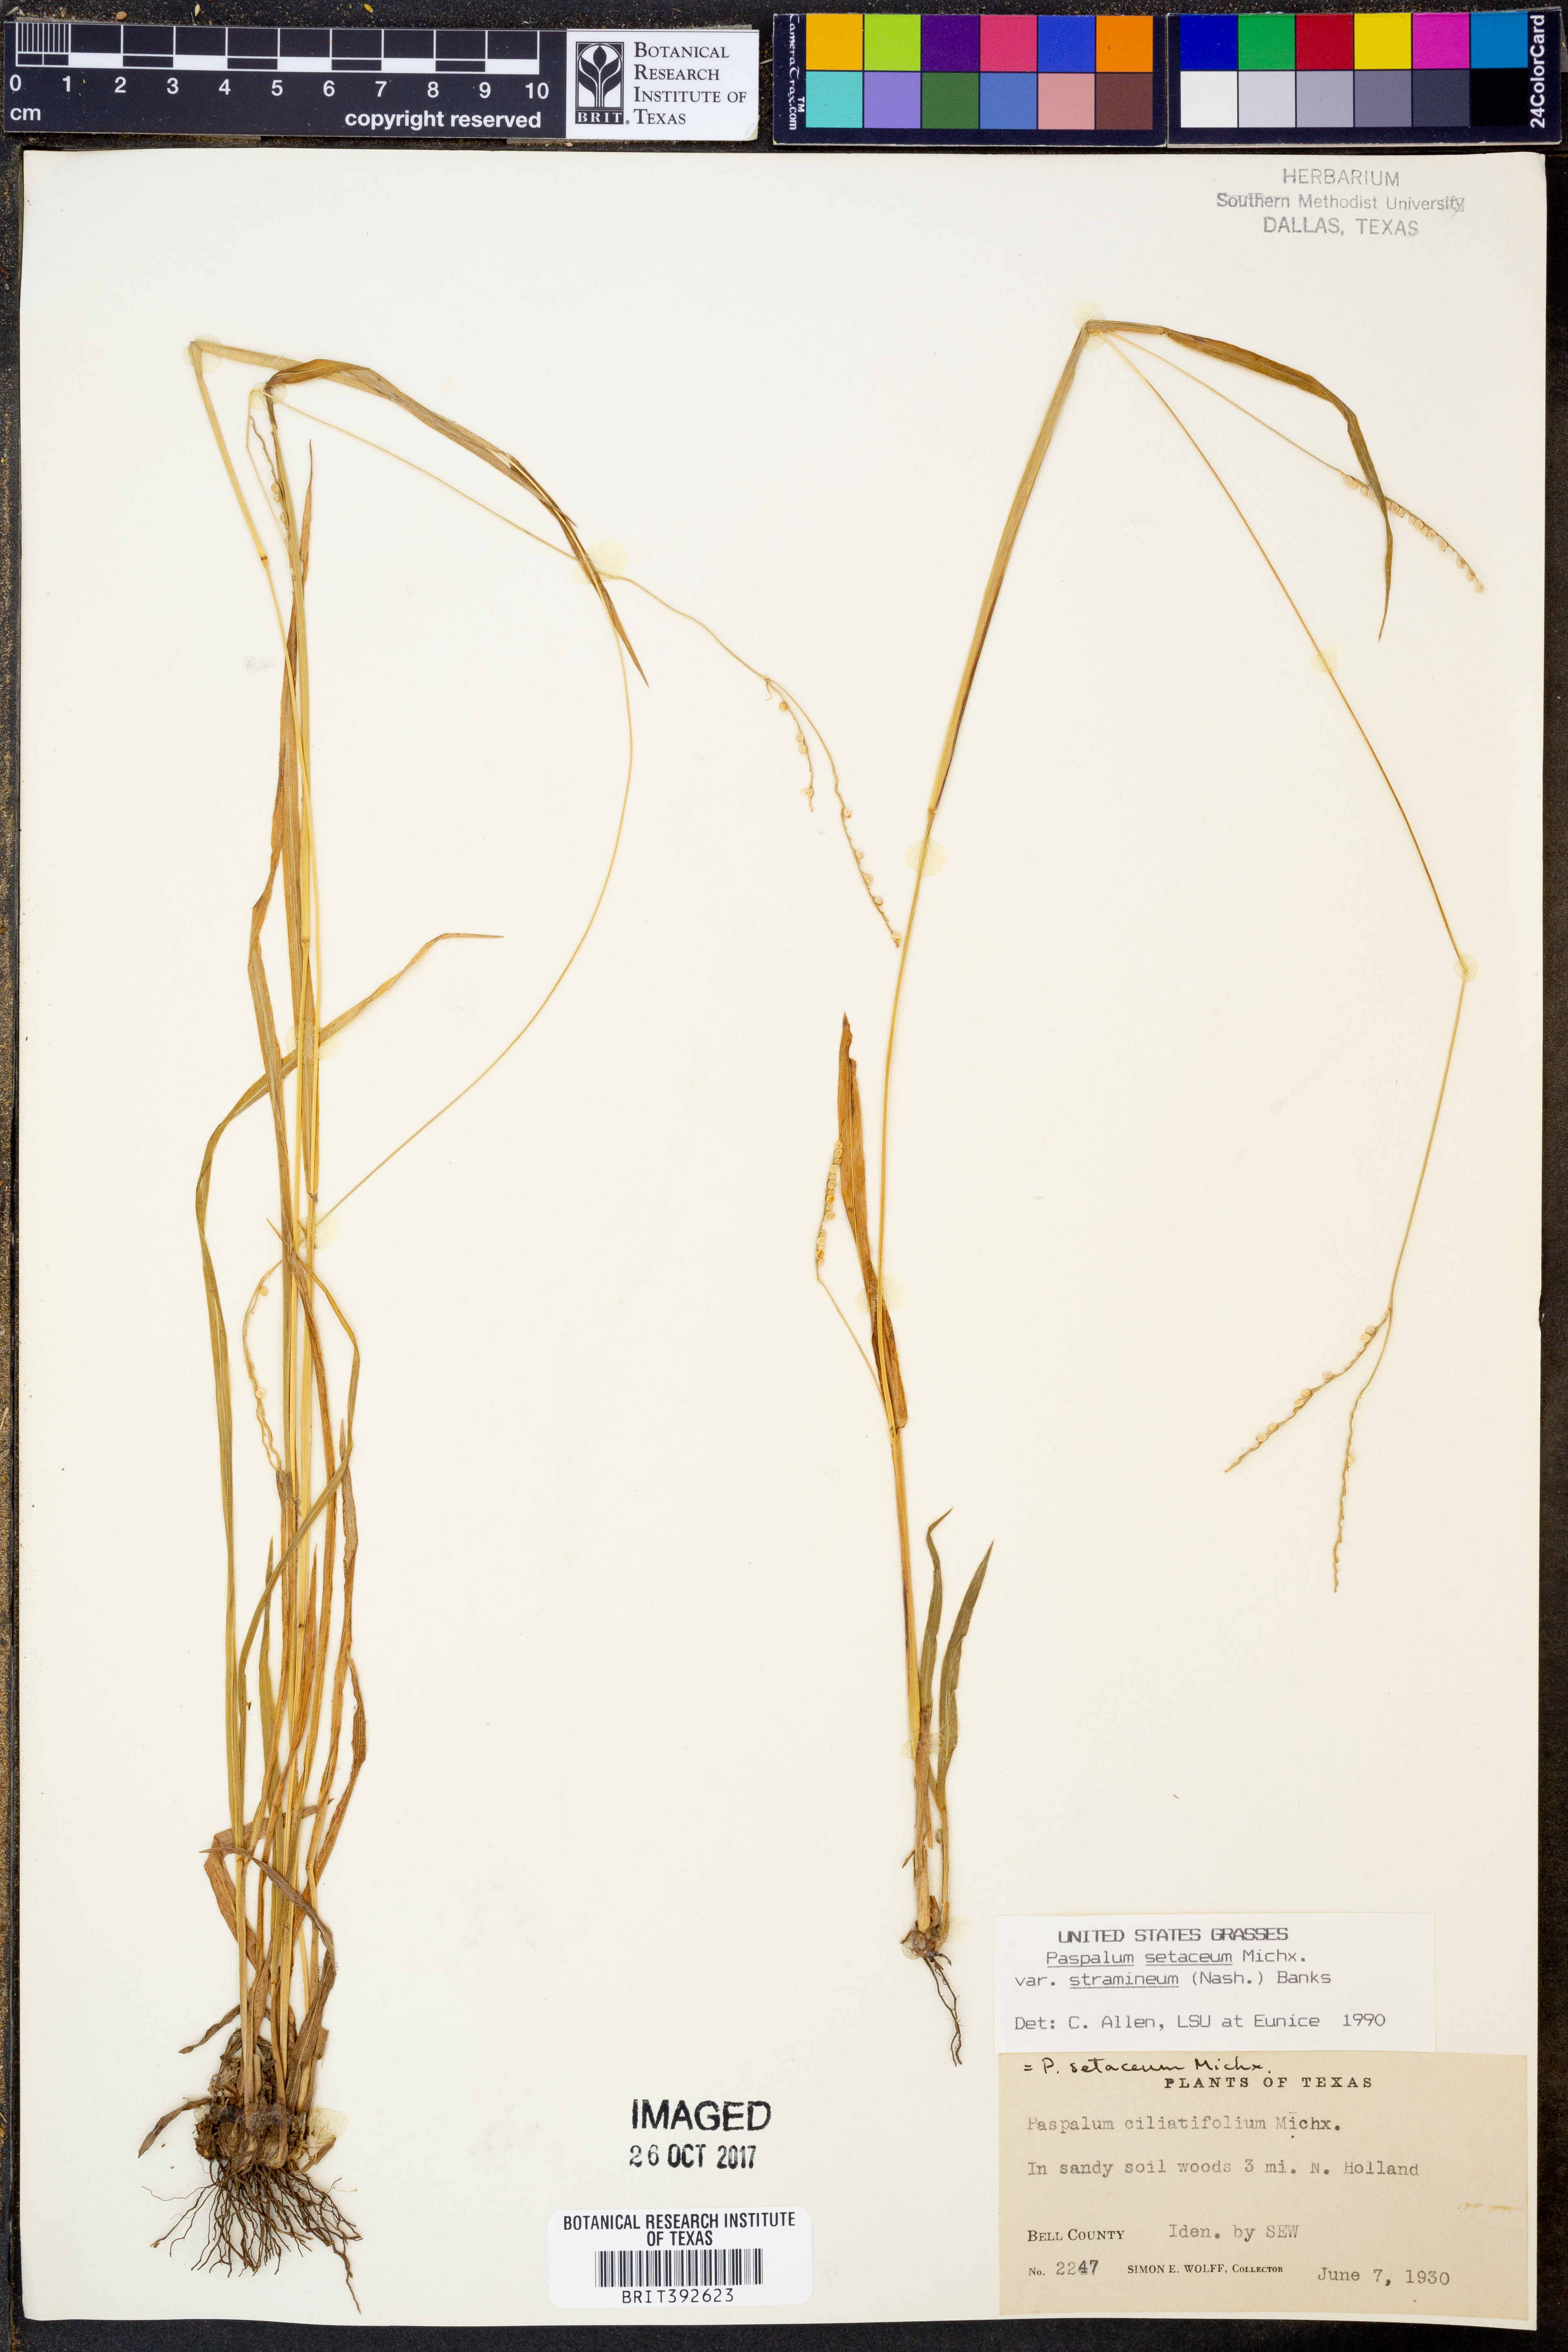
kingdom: Plantae
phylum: Tracheophyta
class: Liliopsida
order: Poales
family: Poaceae
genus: Paspalum
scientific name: Paspalum setaceum
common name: Slender paspalum
